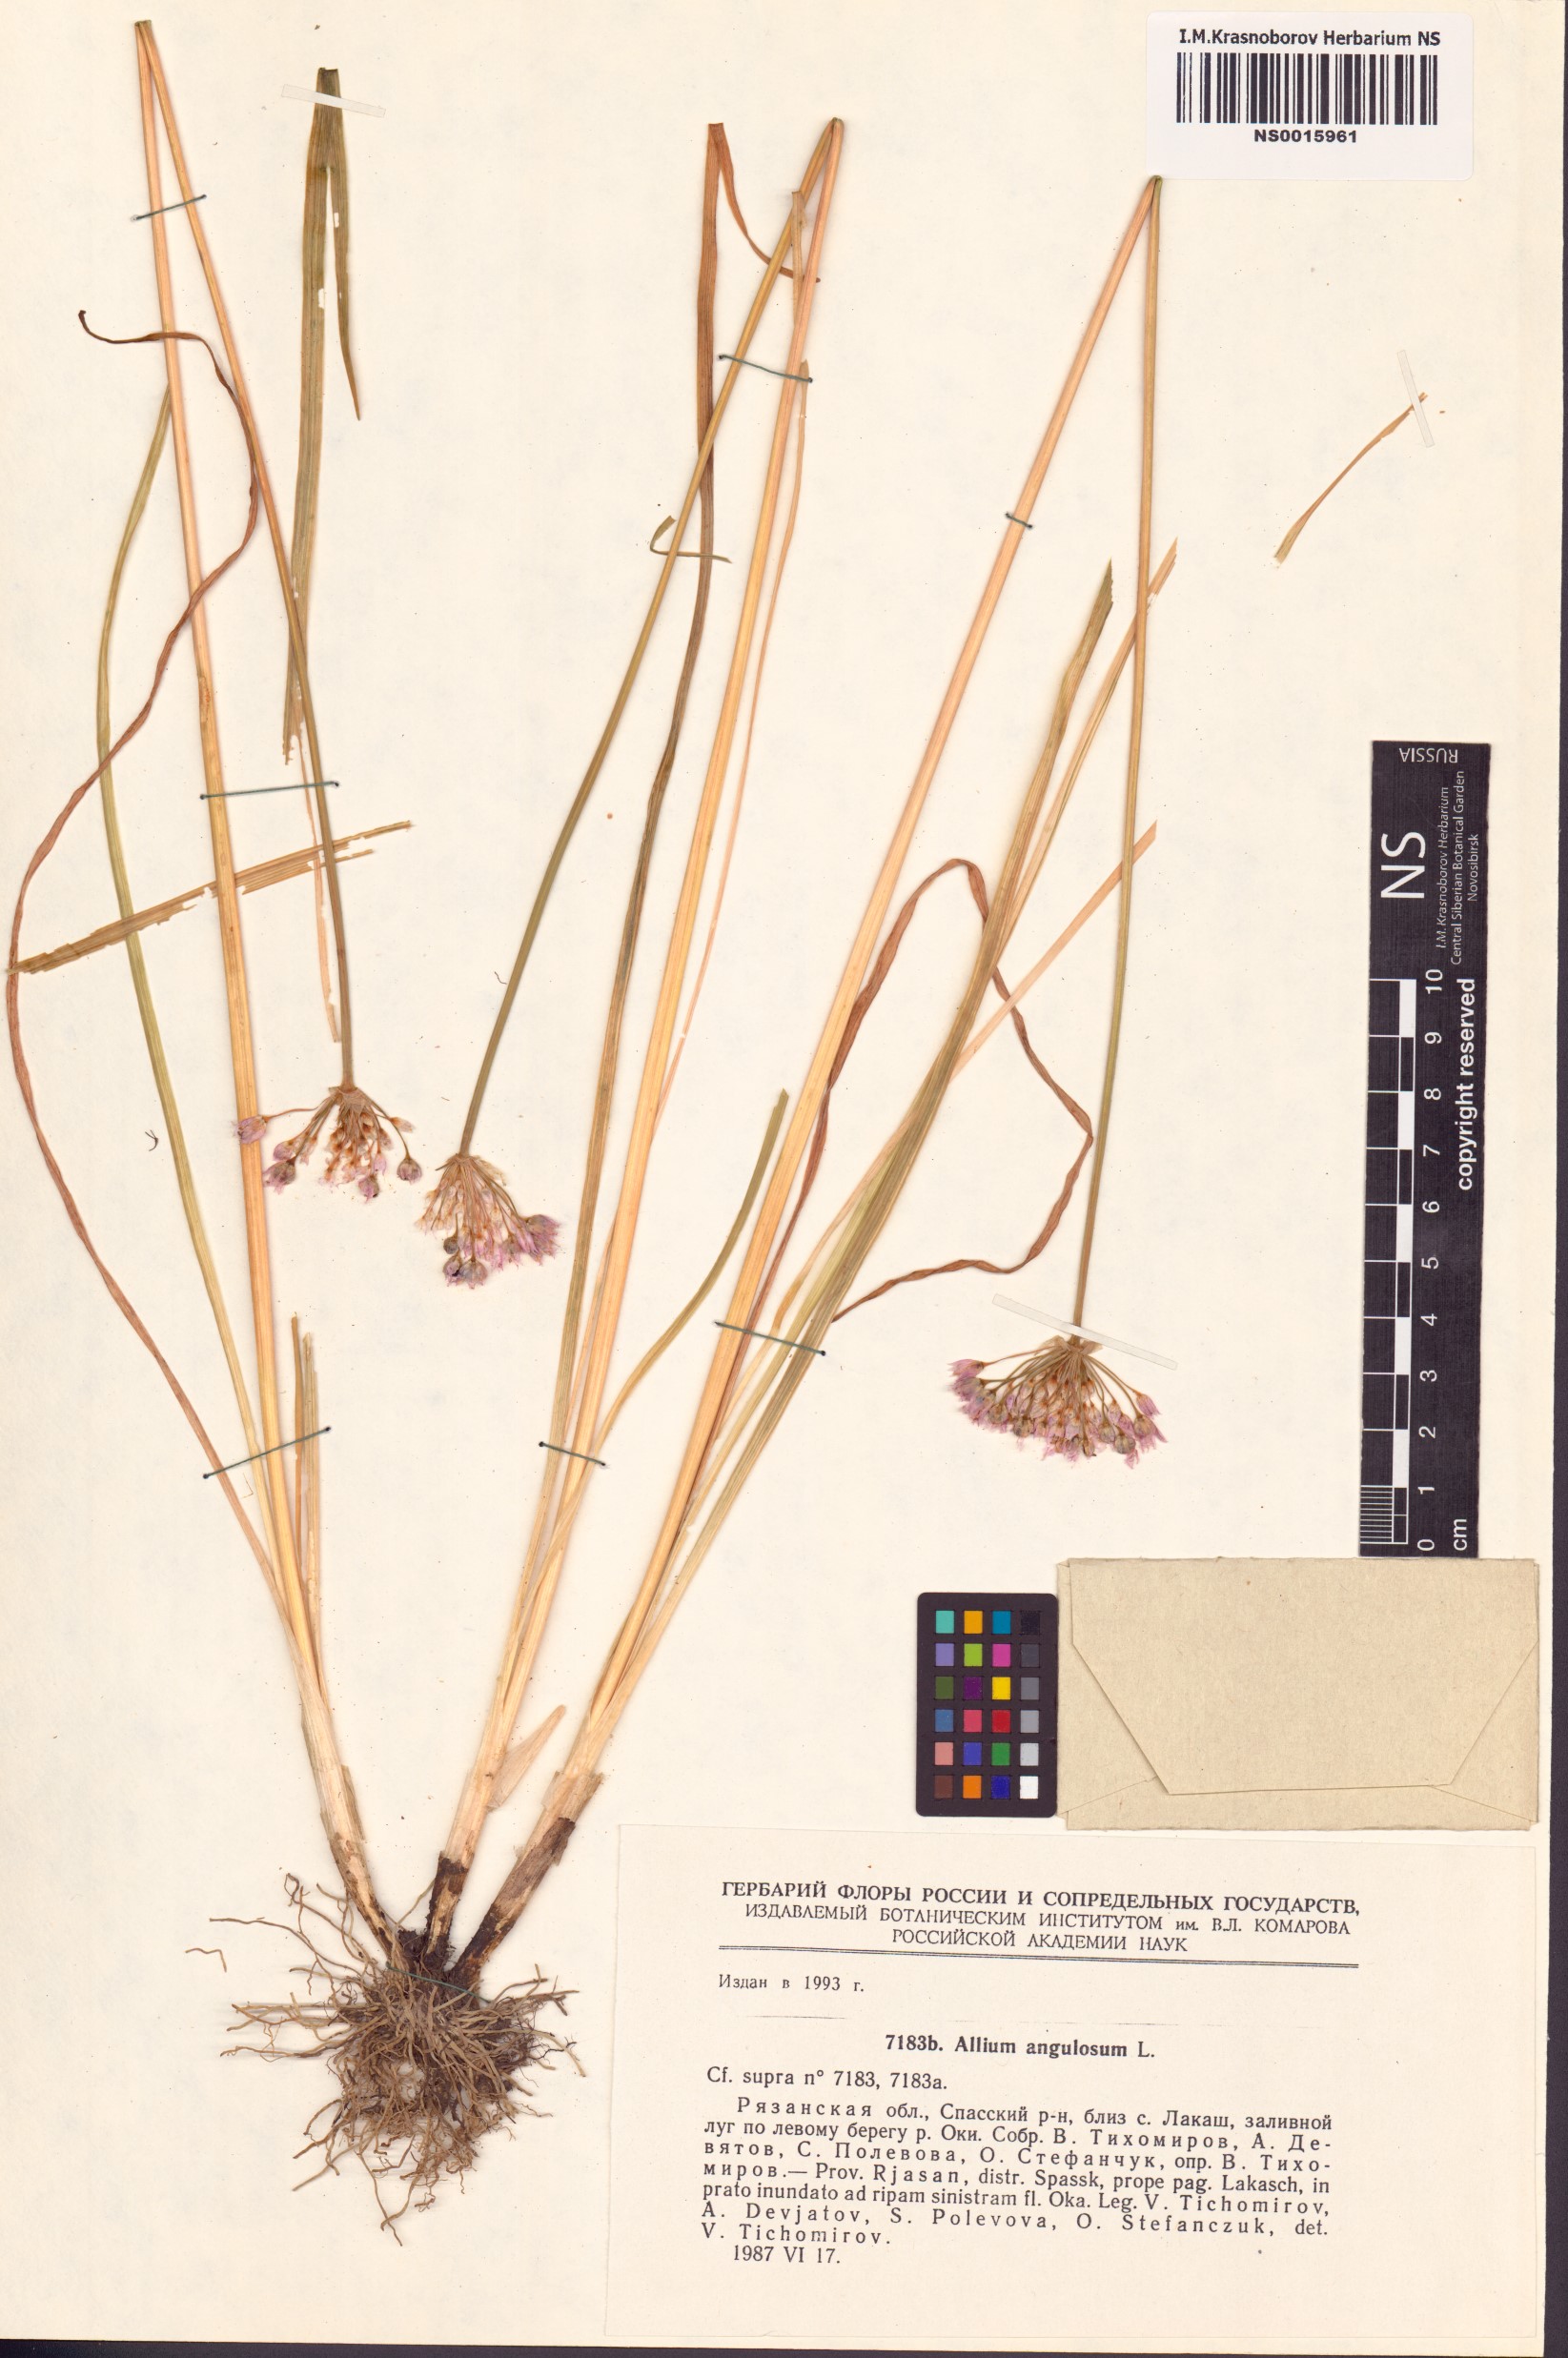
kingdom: Plantae
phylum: Tracheophyta
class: Liliopsida
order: Asparagales
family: Amaryllidaceae
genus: Allium
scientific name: Allium angulosum
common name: Mouse garlic
